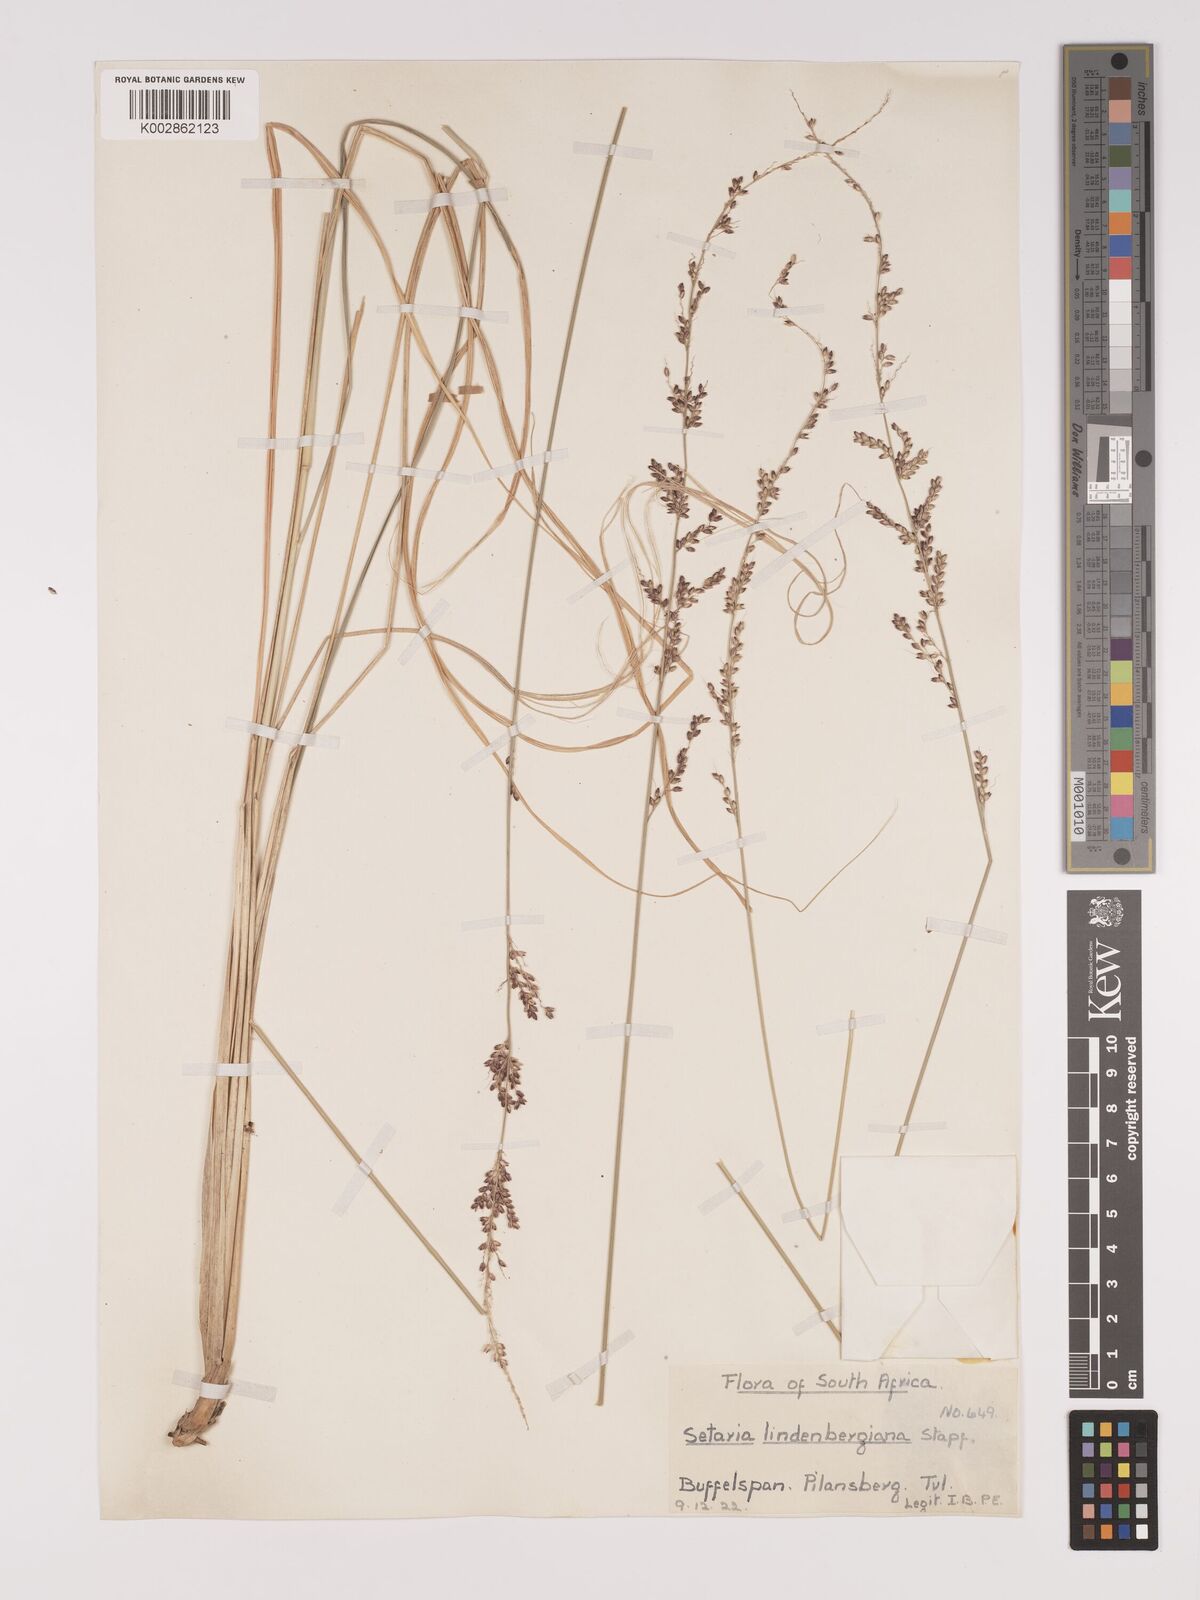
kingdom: Plantae
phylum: Tracheophyta
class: Liliopsida
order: Poales
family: Poaceae
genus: Setaria
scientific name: Setaria lindenbergiana
